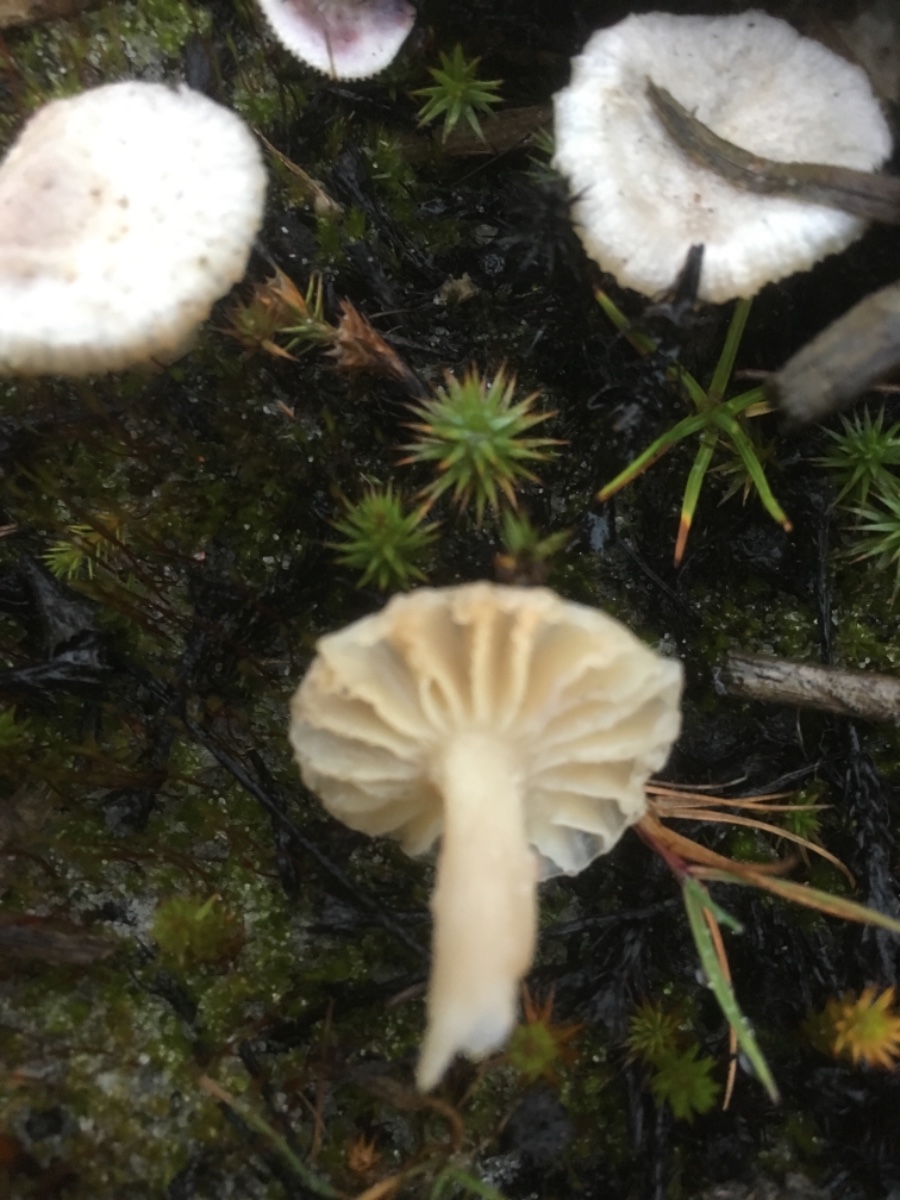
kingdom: Fungi
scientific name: Fungi
